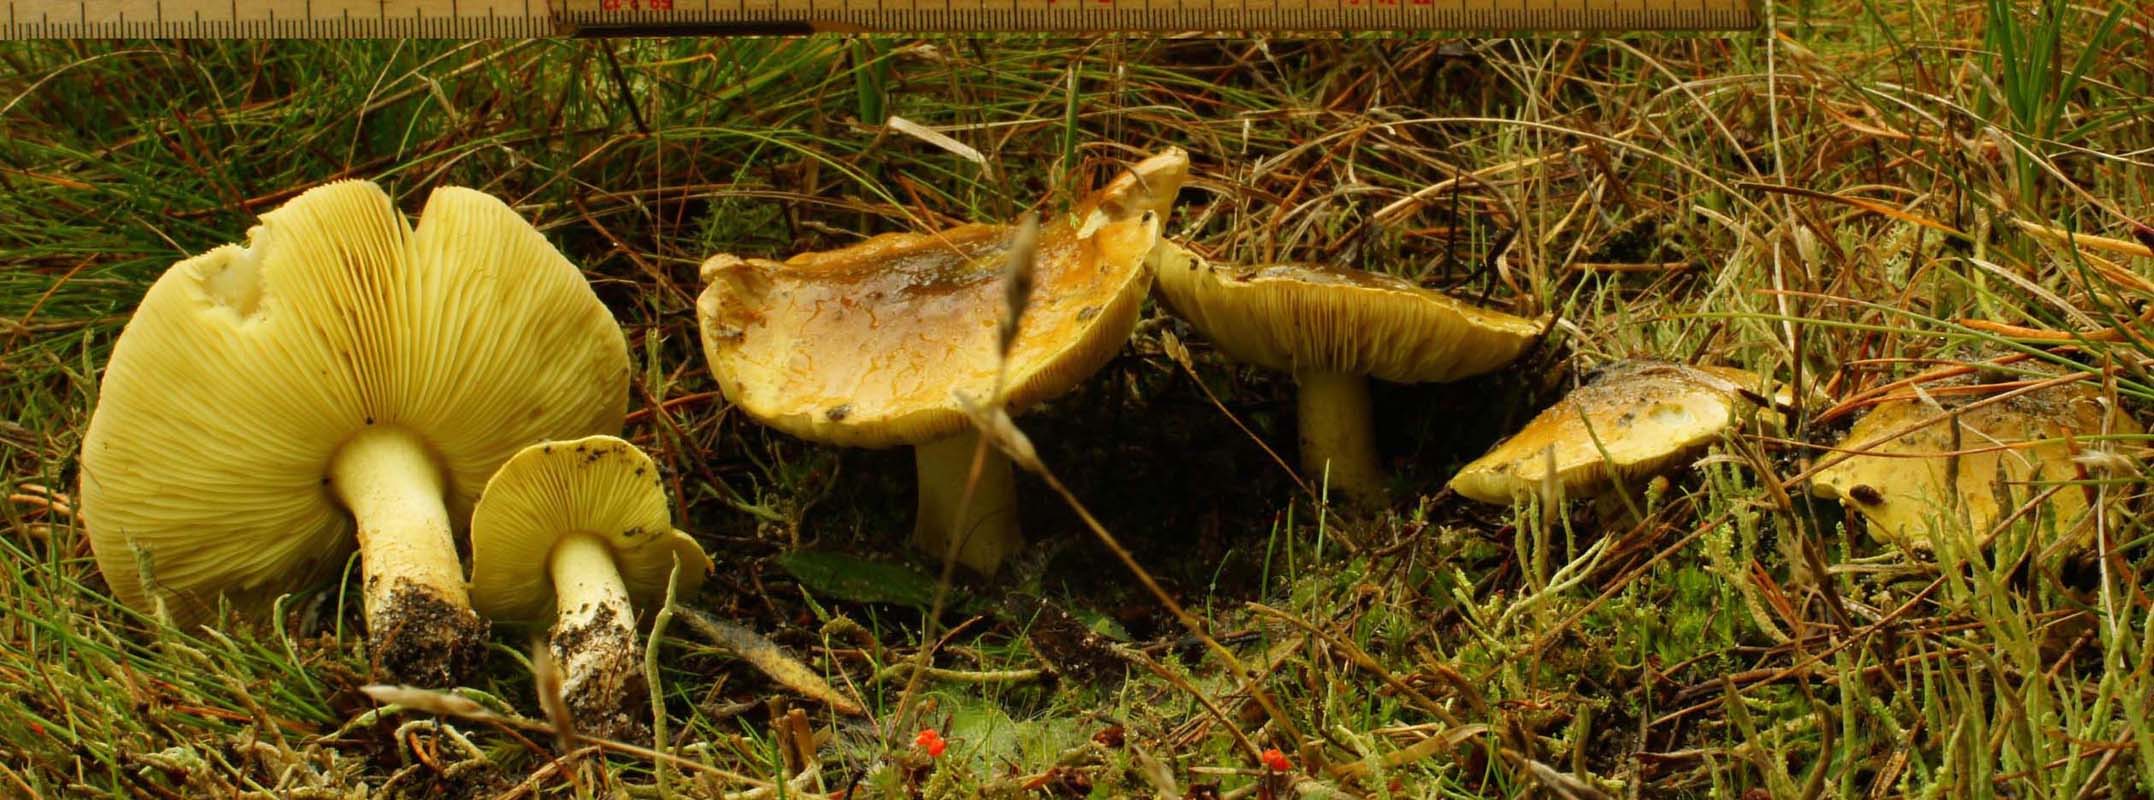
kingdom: Fungi
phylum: Basidiomycota
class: Agaricomycetes
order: Agaricales
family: Tricholomataceae
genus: Tricholoma
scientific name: Tricholoma equestre
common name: ægte ridderhat
